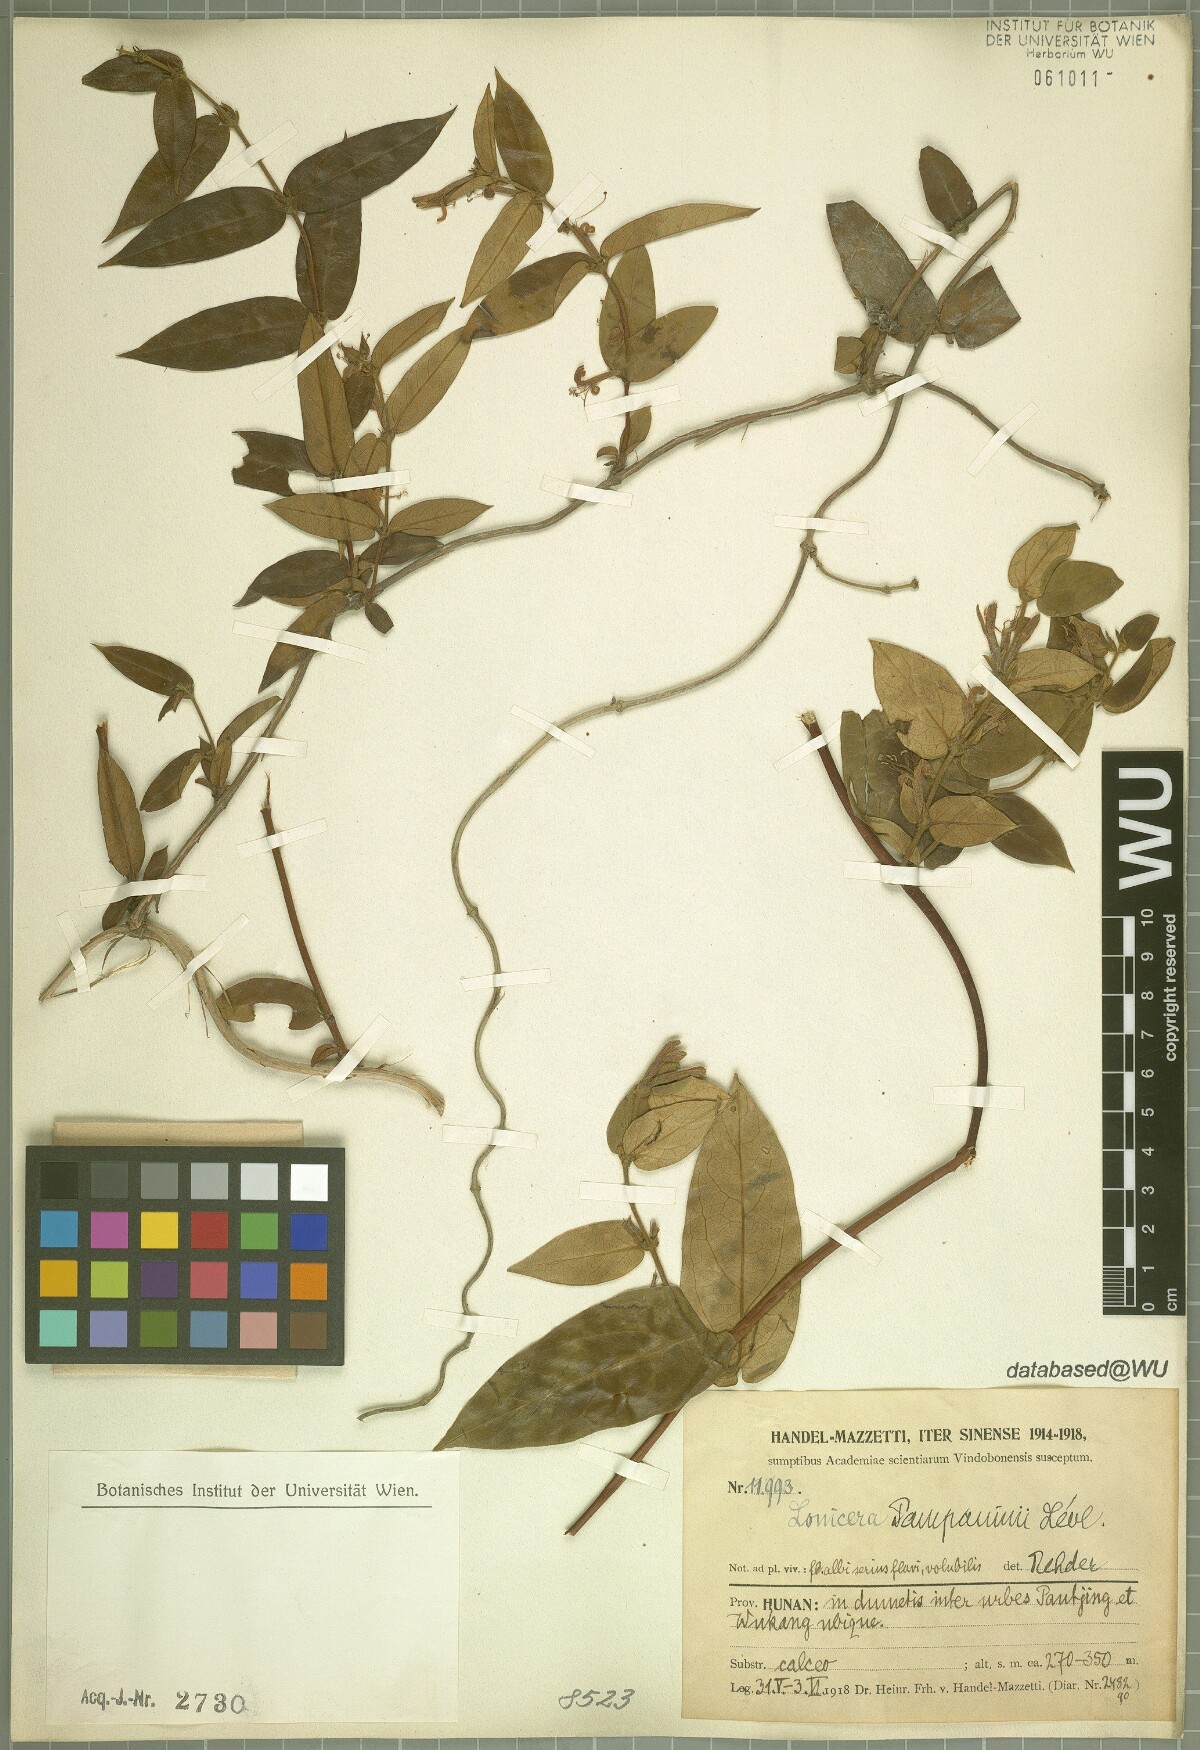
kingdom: Plantae
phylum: Tracheophyta
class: Magnoliopsida
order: Dipsacales
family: Caprifoliaceae
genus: Lonicera
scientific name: Lonicera pampaninii
